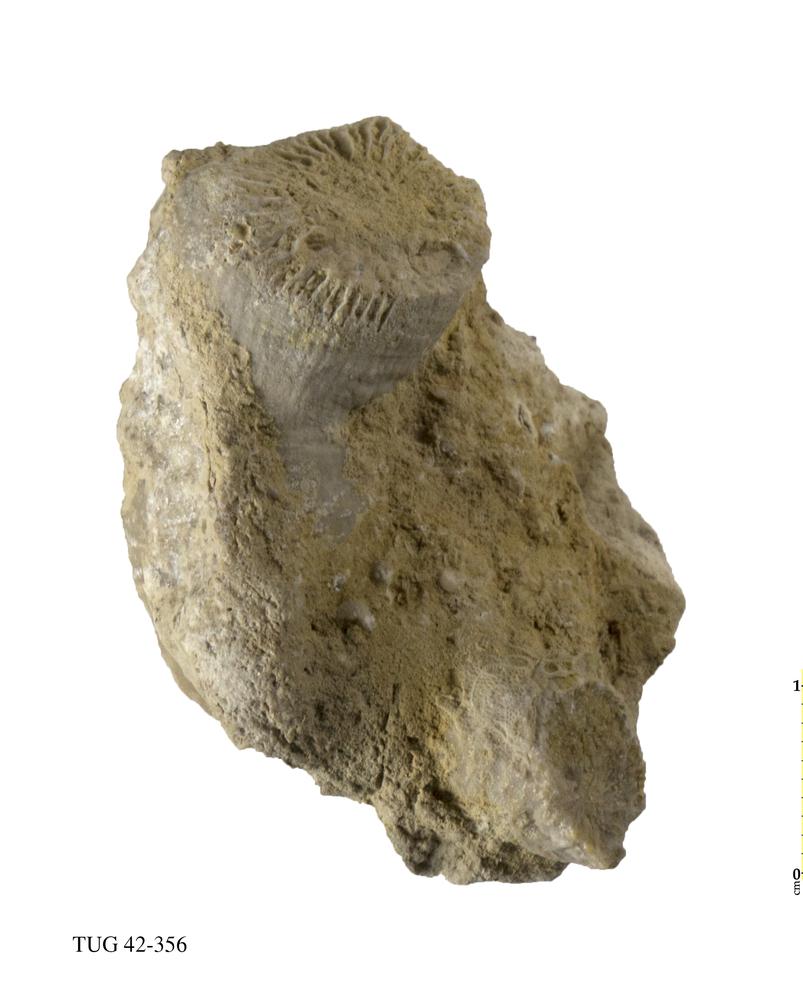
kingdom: Animalia
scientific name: Animalia
